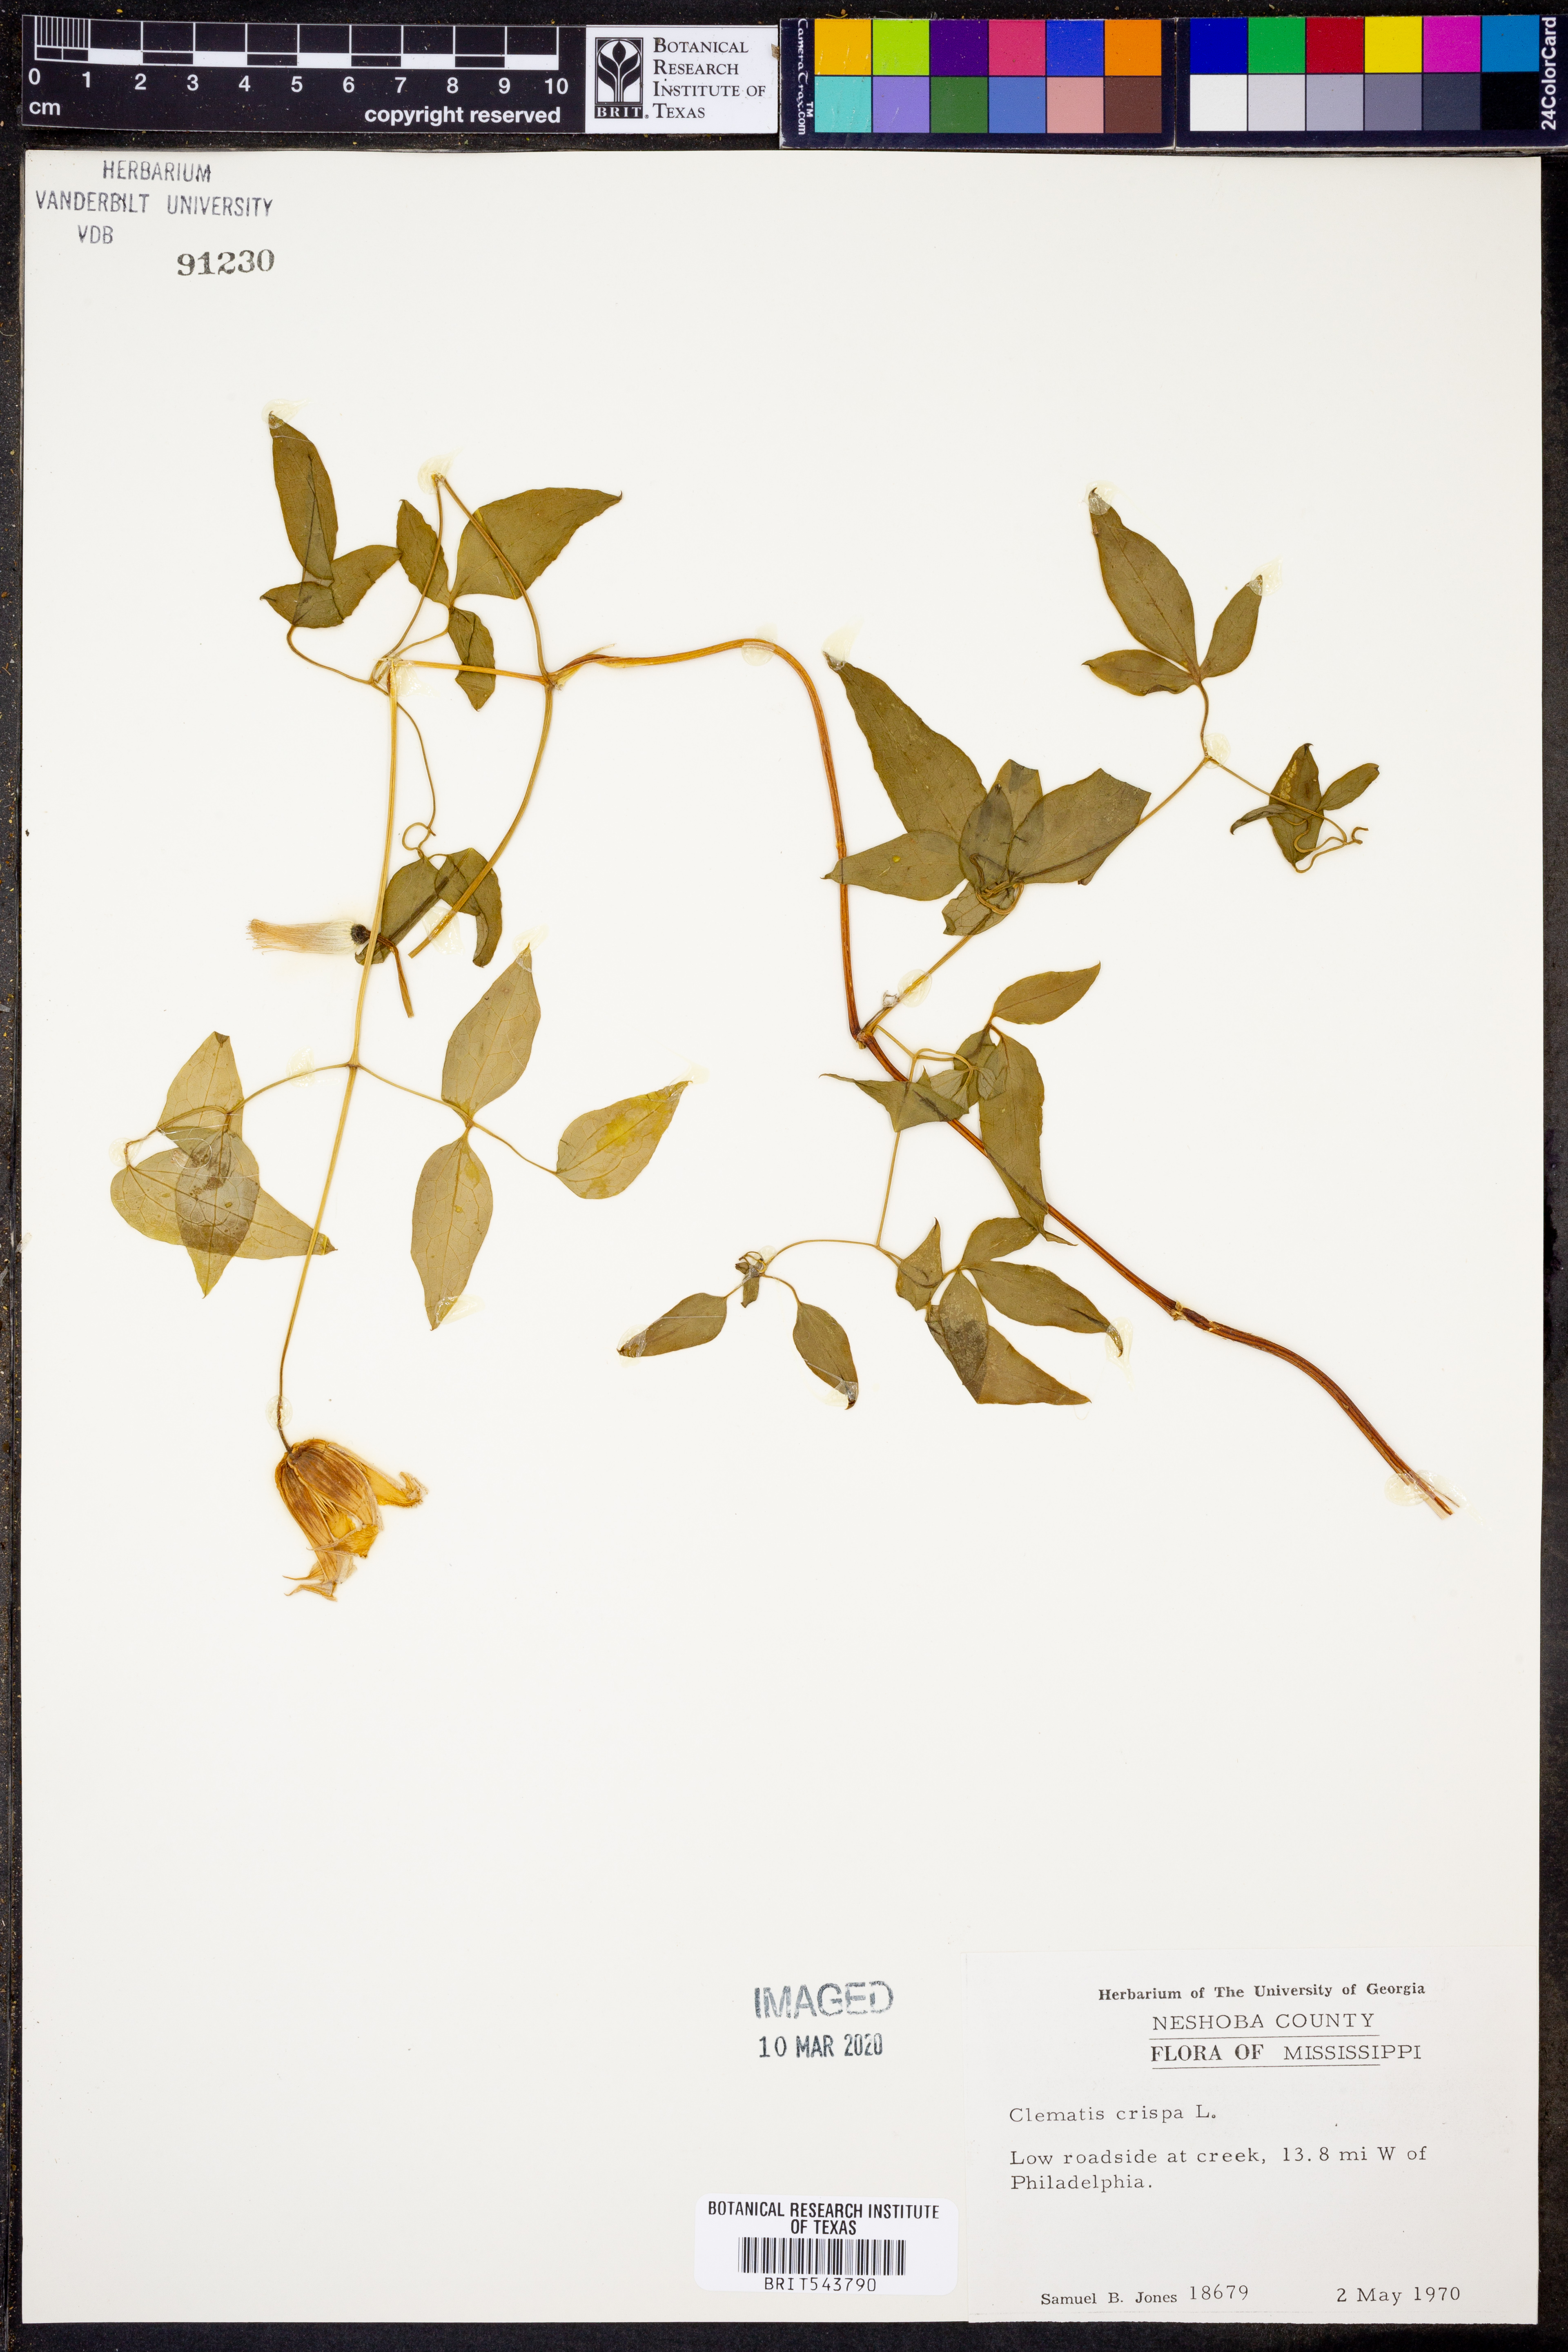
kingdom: Plantae
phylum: Tracheophyta
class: Magnoliopsida
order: Ranunculales
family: Ranunculaceae
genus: Clematis
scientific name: Clematis crispa
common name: Curly clematis
